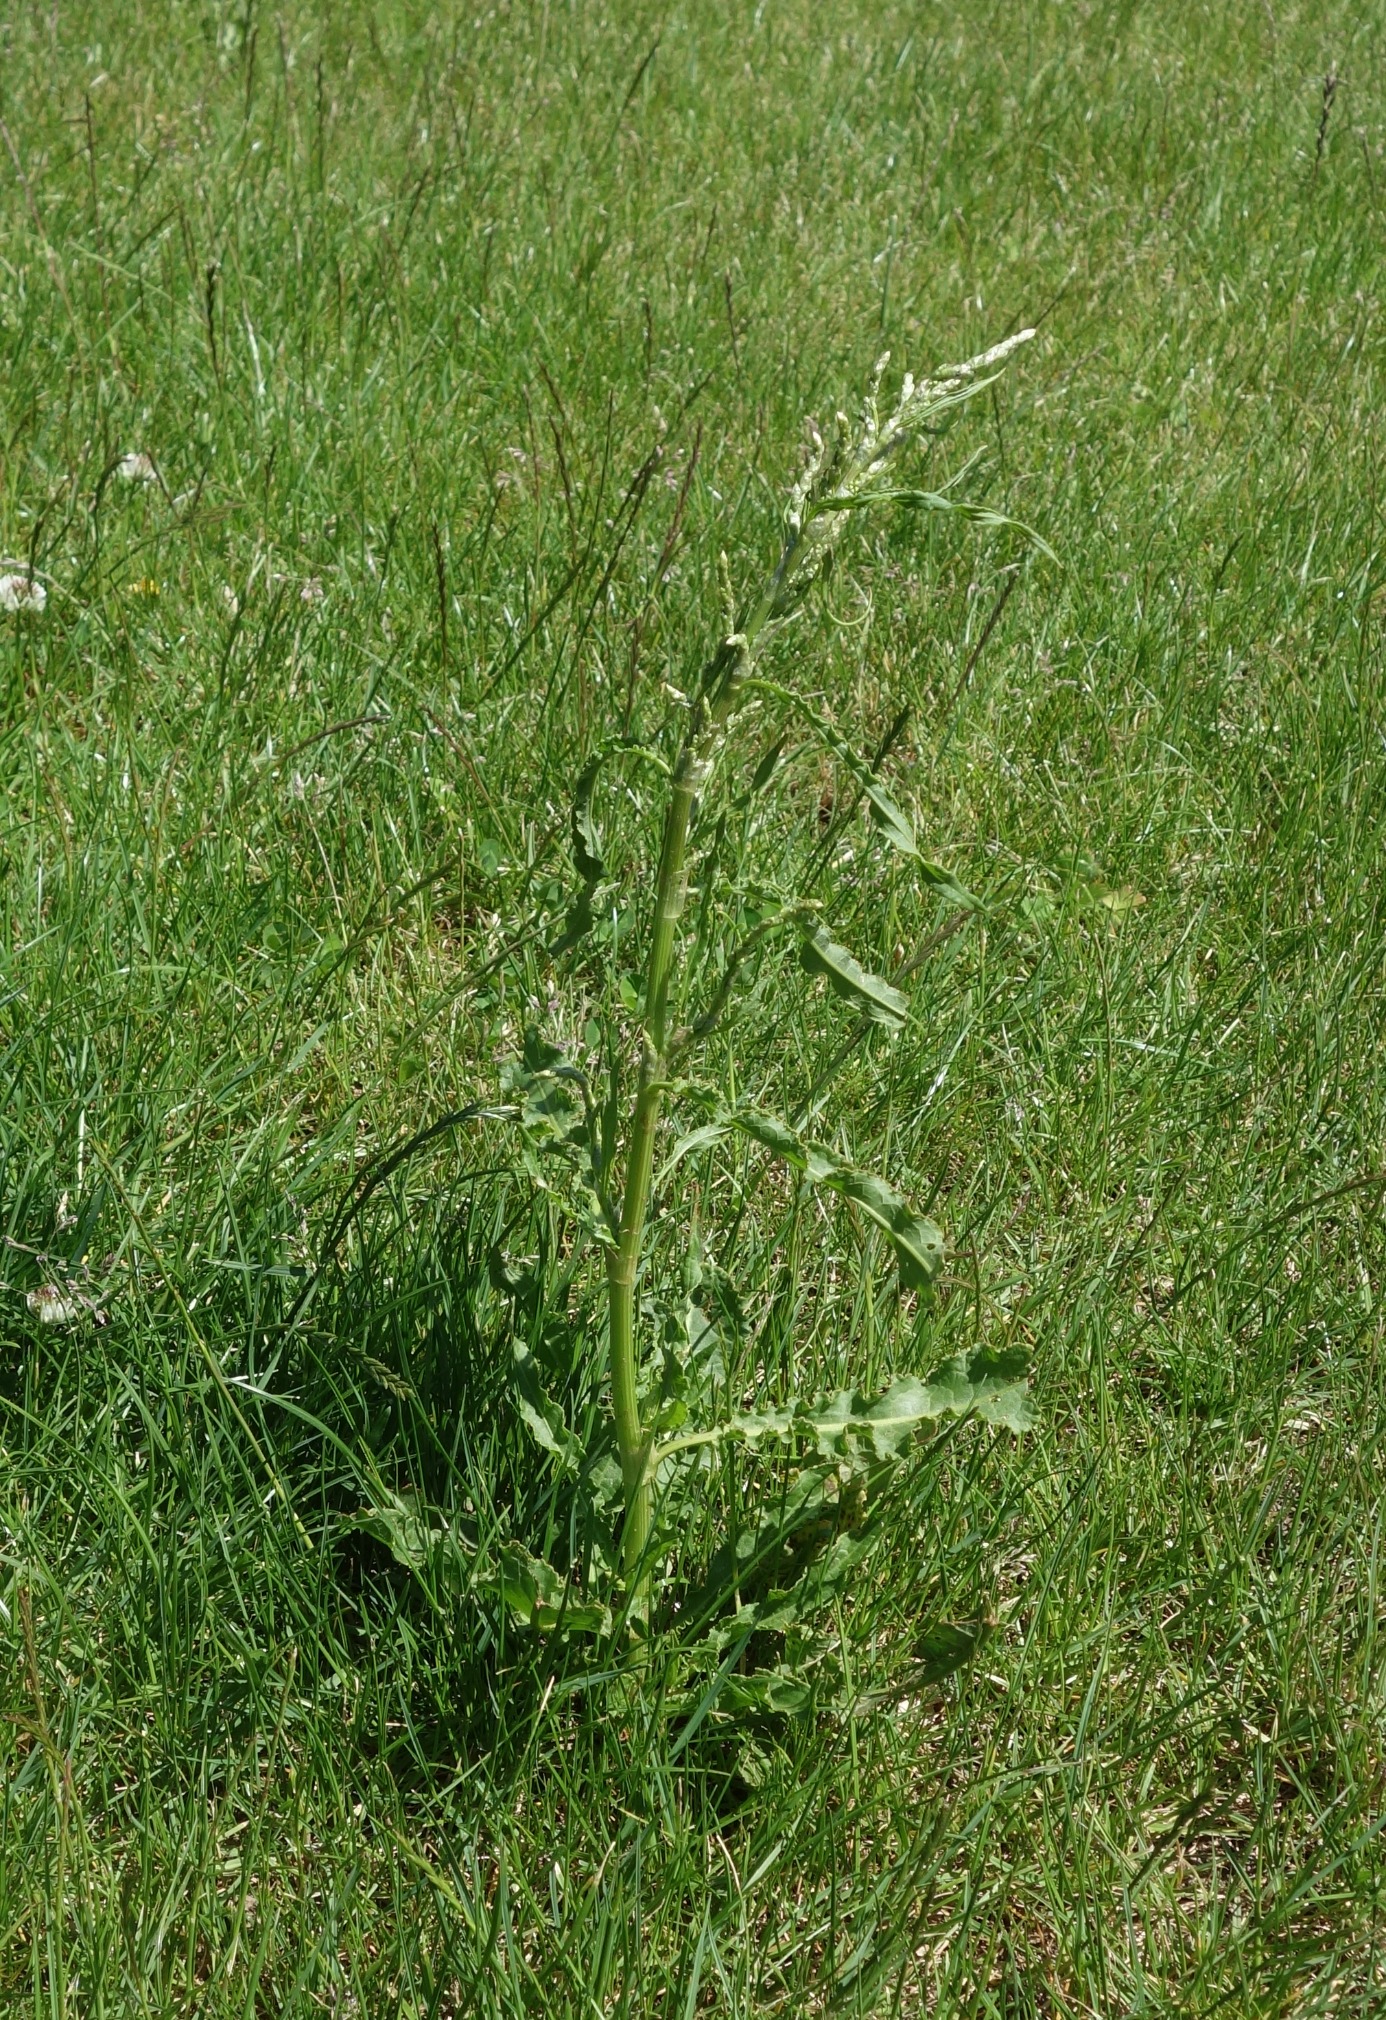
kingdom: Plantae
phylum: Tracheophyta
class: Magnoliopsida
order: Caryophyllales
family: Polygonaceae
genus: Rumex
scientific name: Rumex crispus
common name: Kruset skræppe
